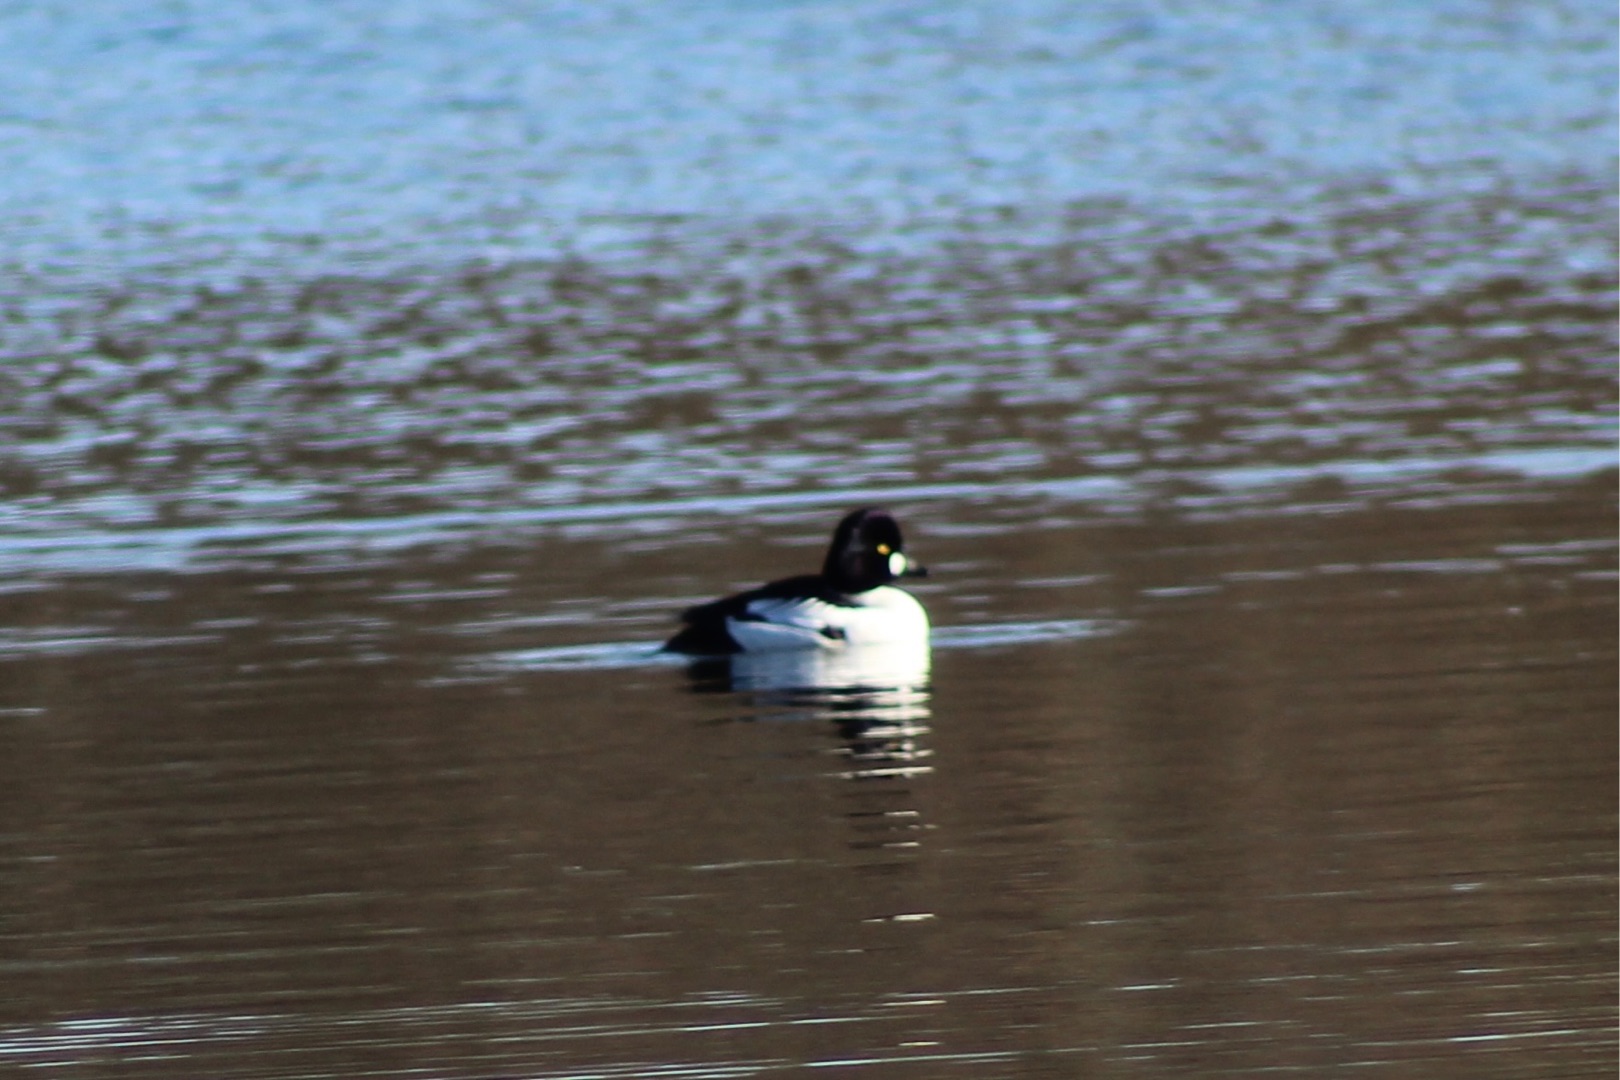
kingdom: Animalia
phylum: Chordata
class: Aves
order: Anseriformes
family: Anatidae
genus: Bucephala
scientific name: Bucephala clangula
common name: Hvinand
